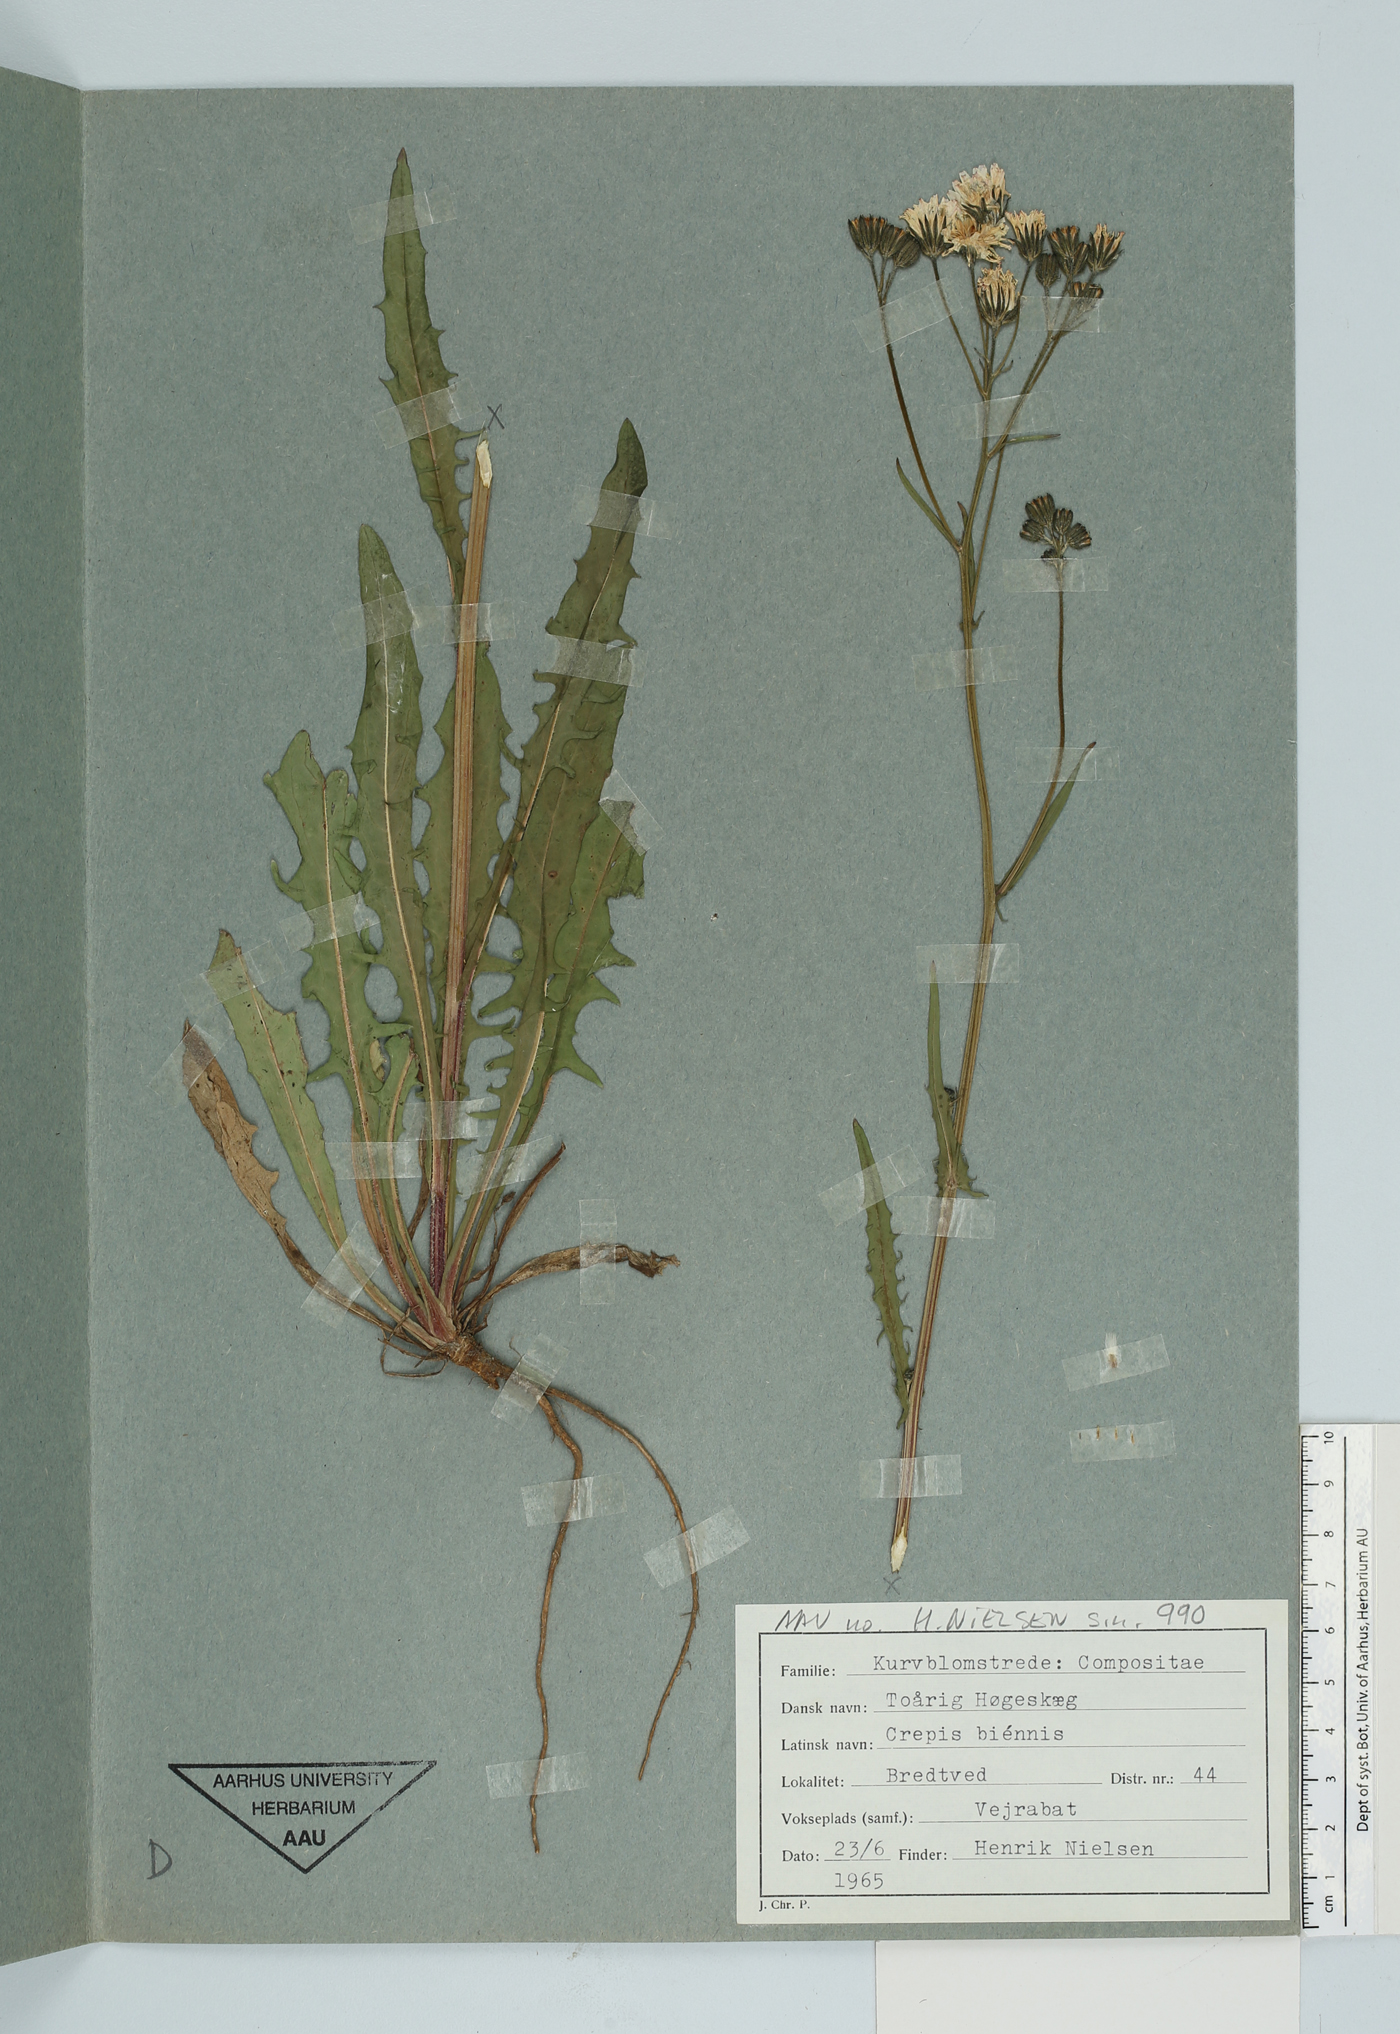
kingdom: Plantae
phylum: Tracheophyta
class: Magnoliopsida
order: Asterales
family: Asteraceae
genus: Crepis
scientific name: Crepis biennis
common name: Rough hawk's-beard
